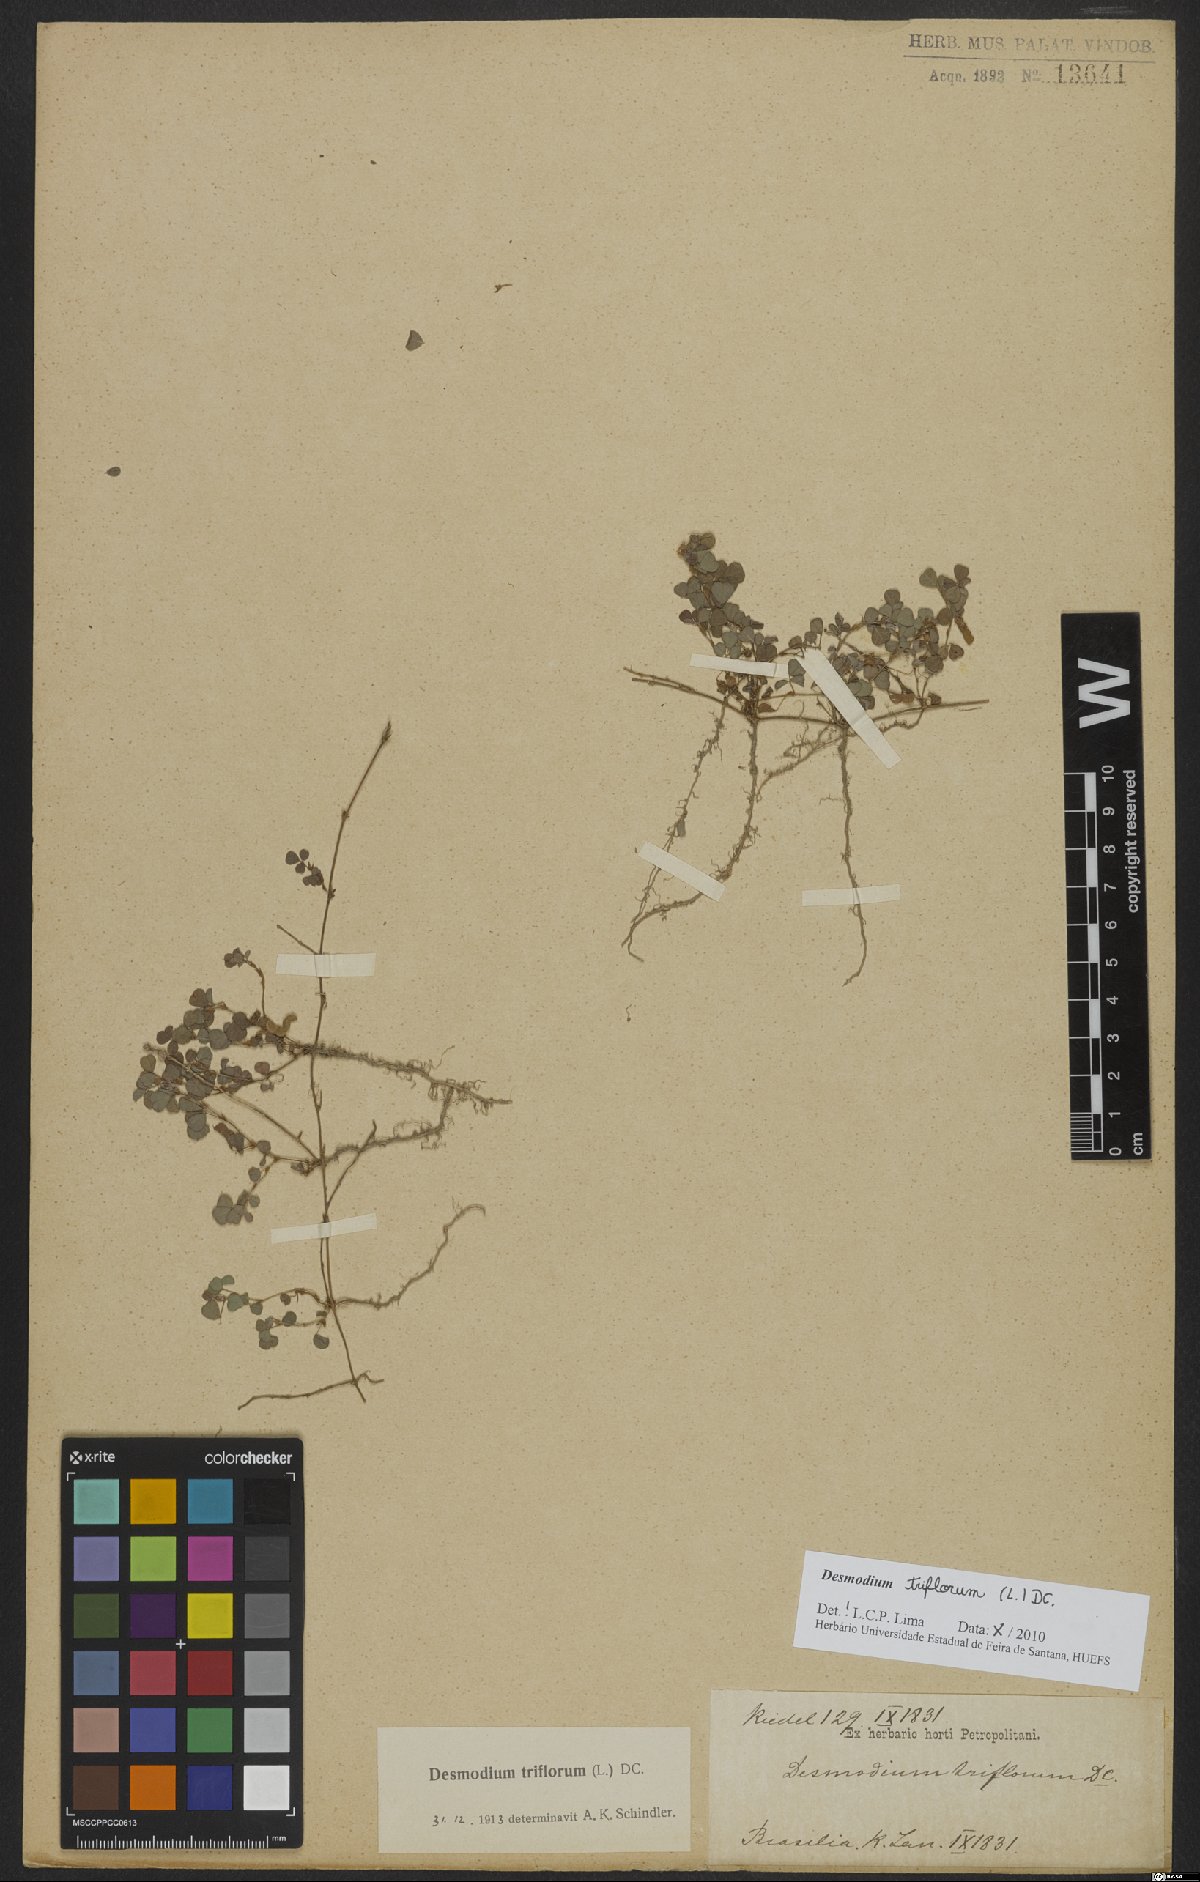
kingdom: Plantae
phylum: Tracheophyta
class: Magnoliopsida
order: Fabales
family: Fabaceae
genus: Grona
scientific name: Grona triflora
